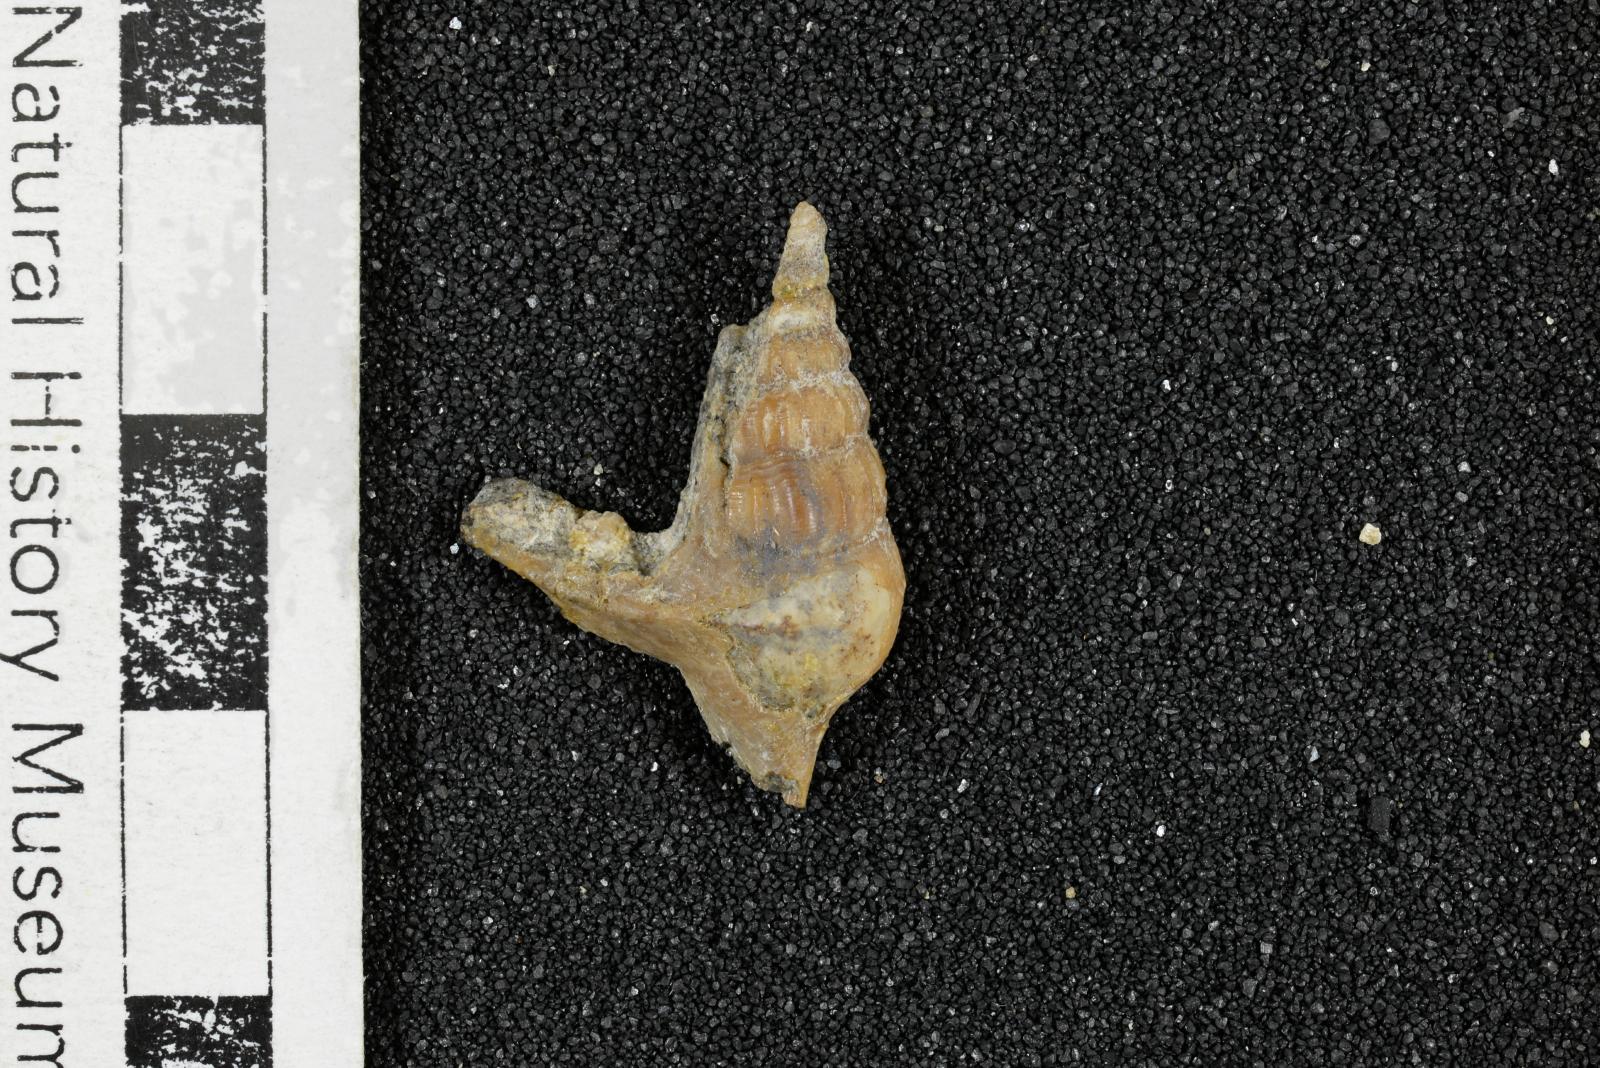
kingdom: Animalia
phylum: Mollusca
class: Gastropoda
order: Littorinimorpha
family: Aporrhaidae
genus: Alarimella
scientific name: Alarimella anae
